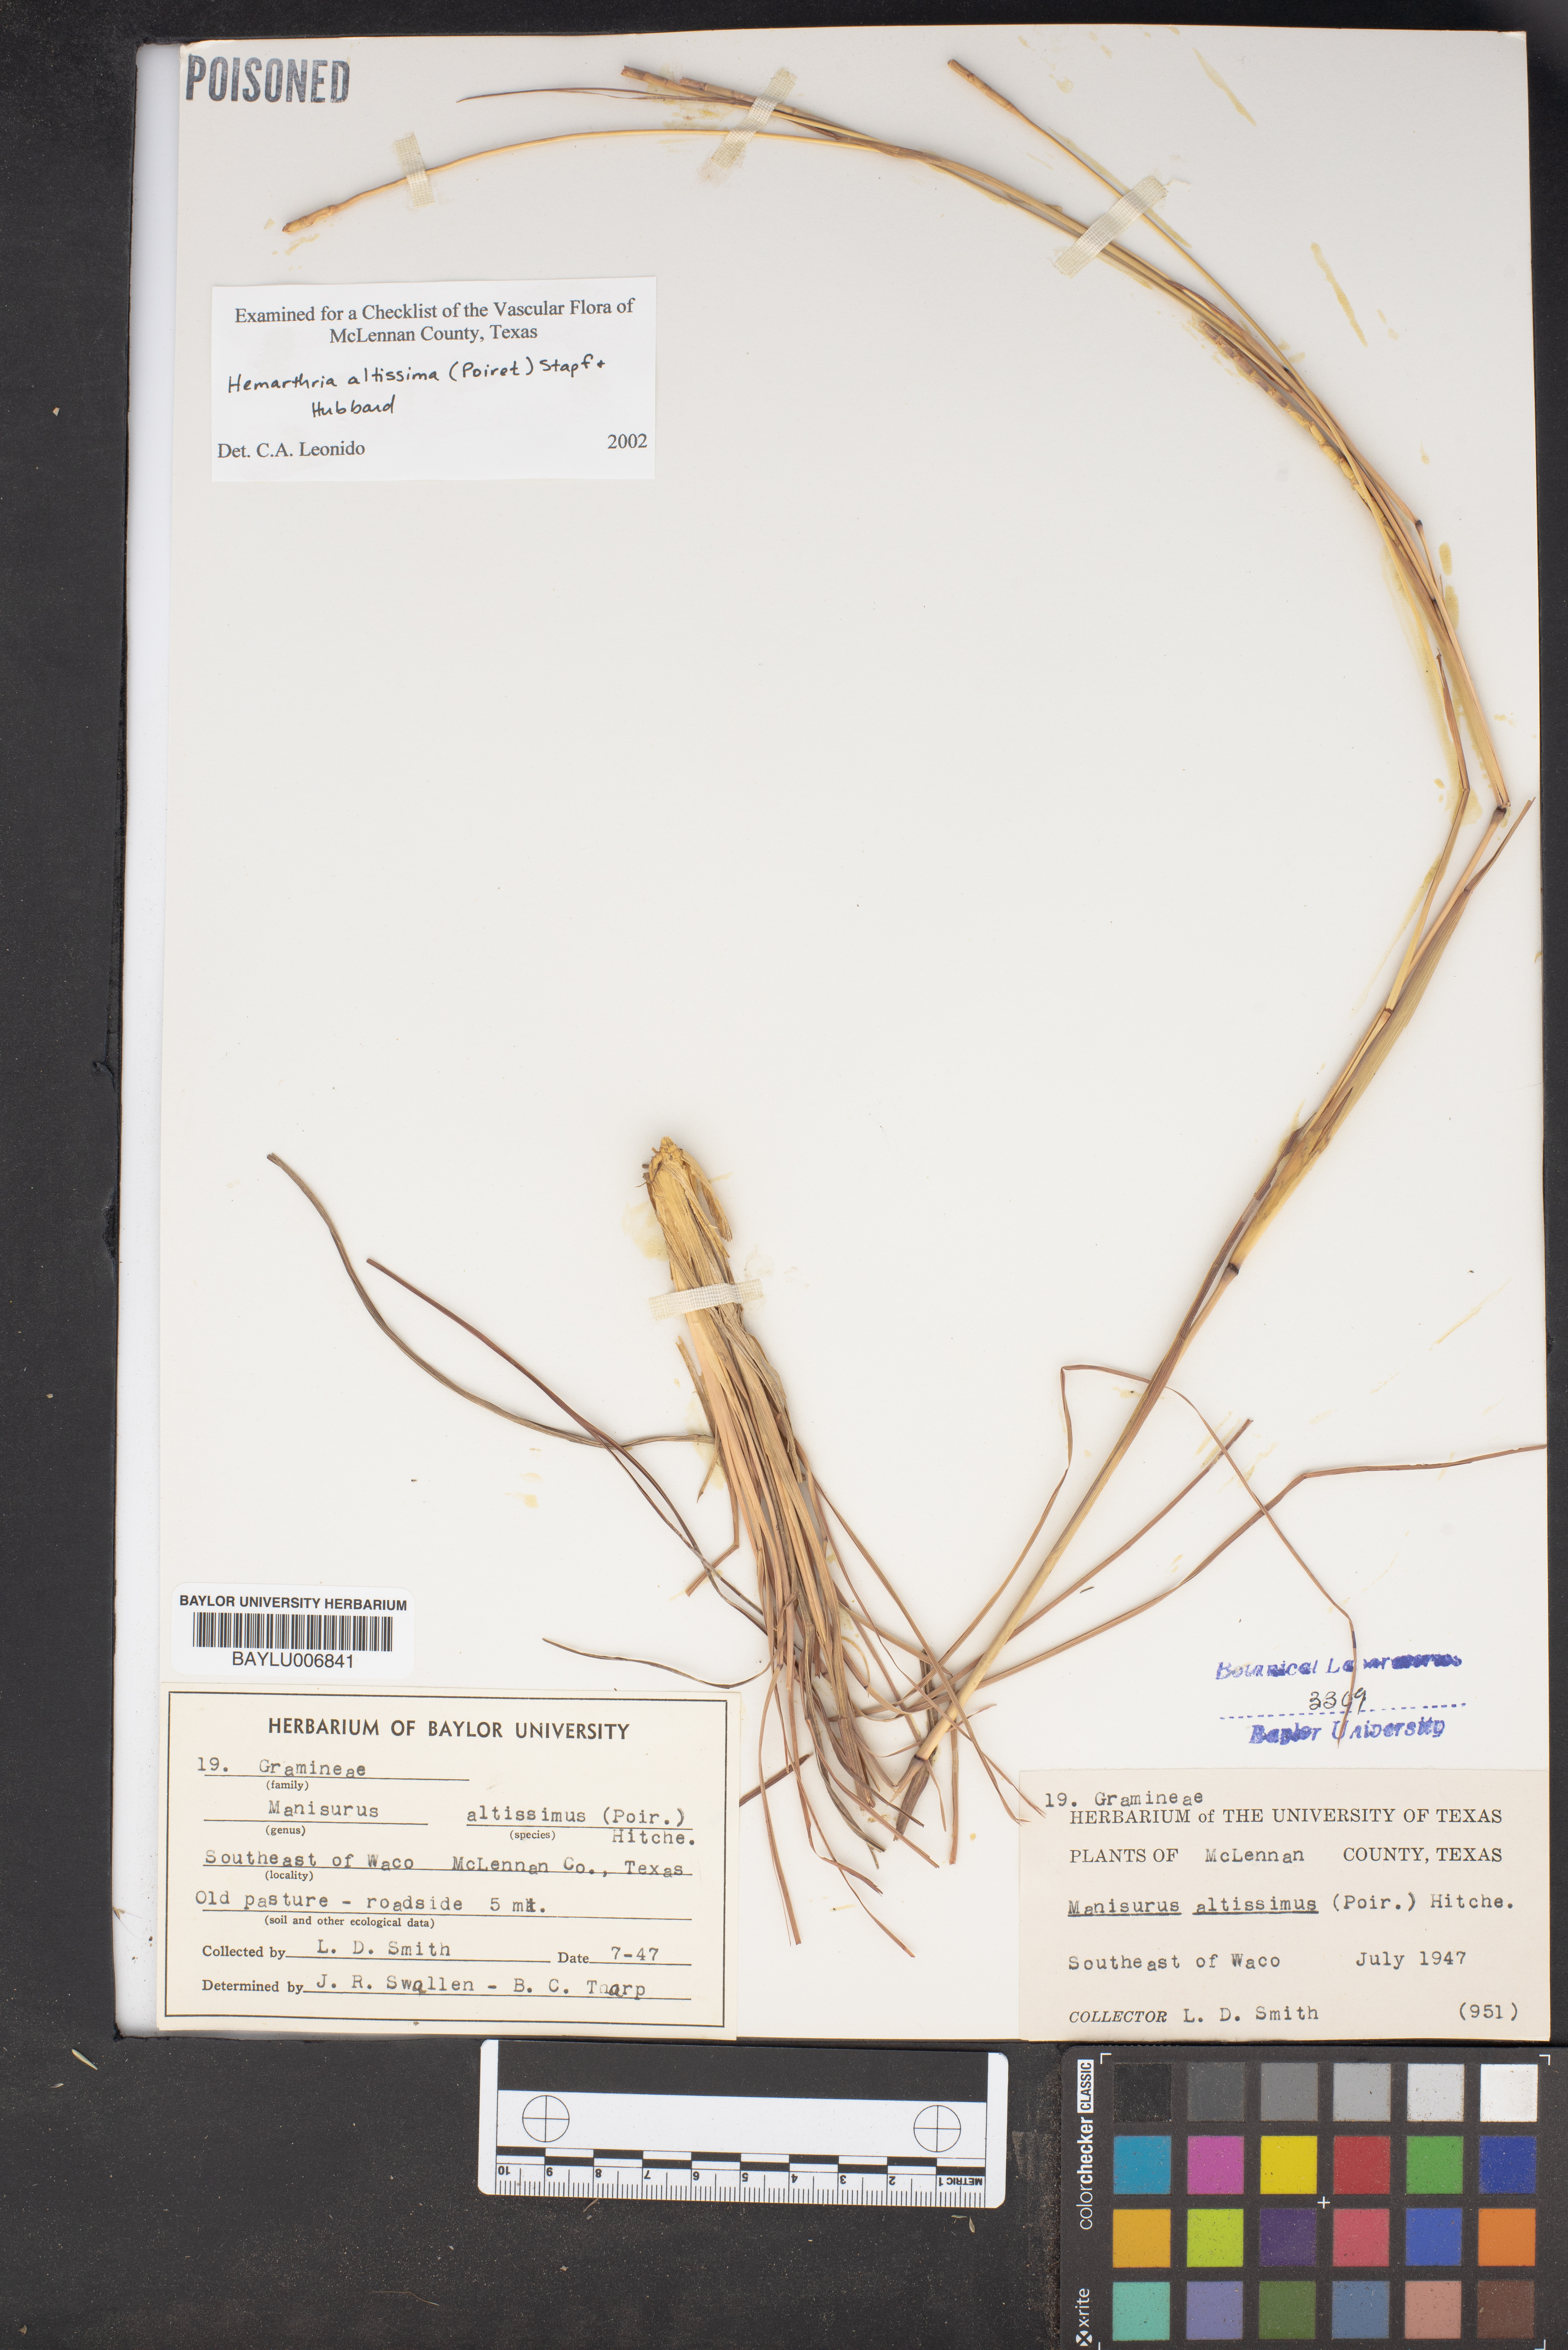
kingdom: Plantae
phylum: Tracheophyta
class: Liliopsida
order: Poales
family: Poaceae
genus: Hemarthria
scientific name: Hemarthria altissima
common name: African jointgrass
